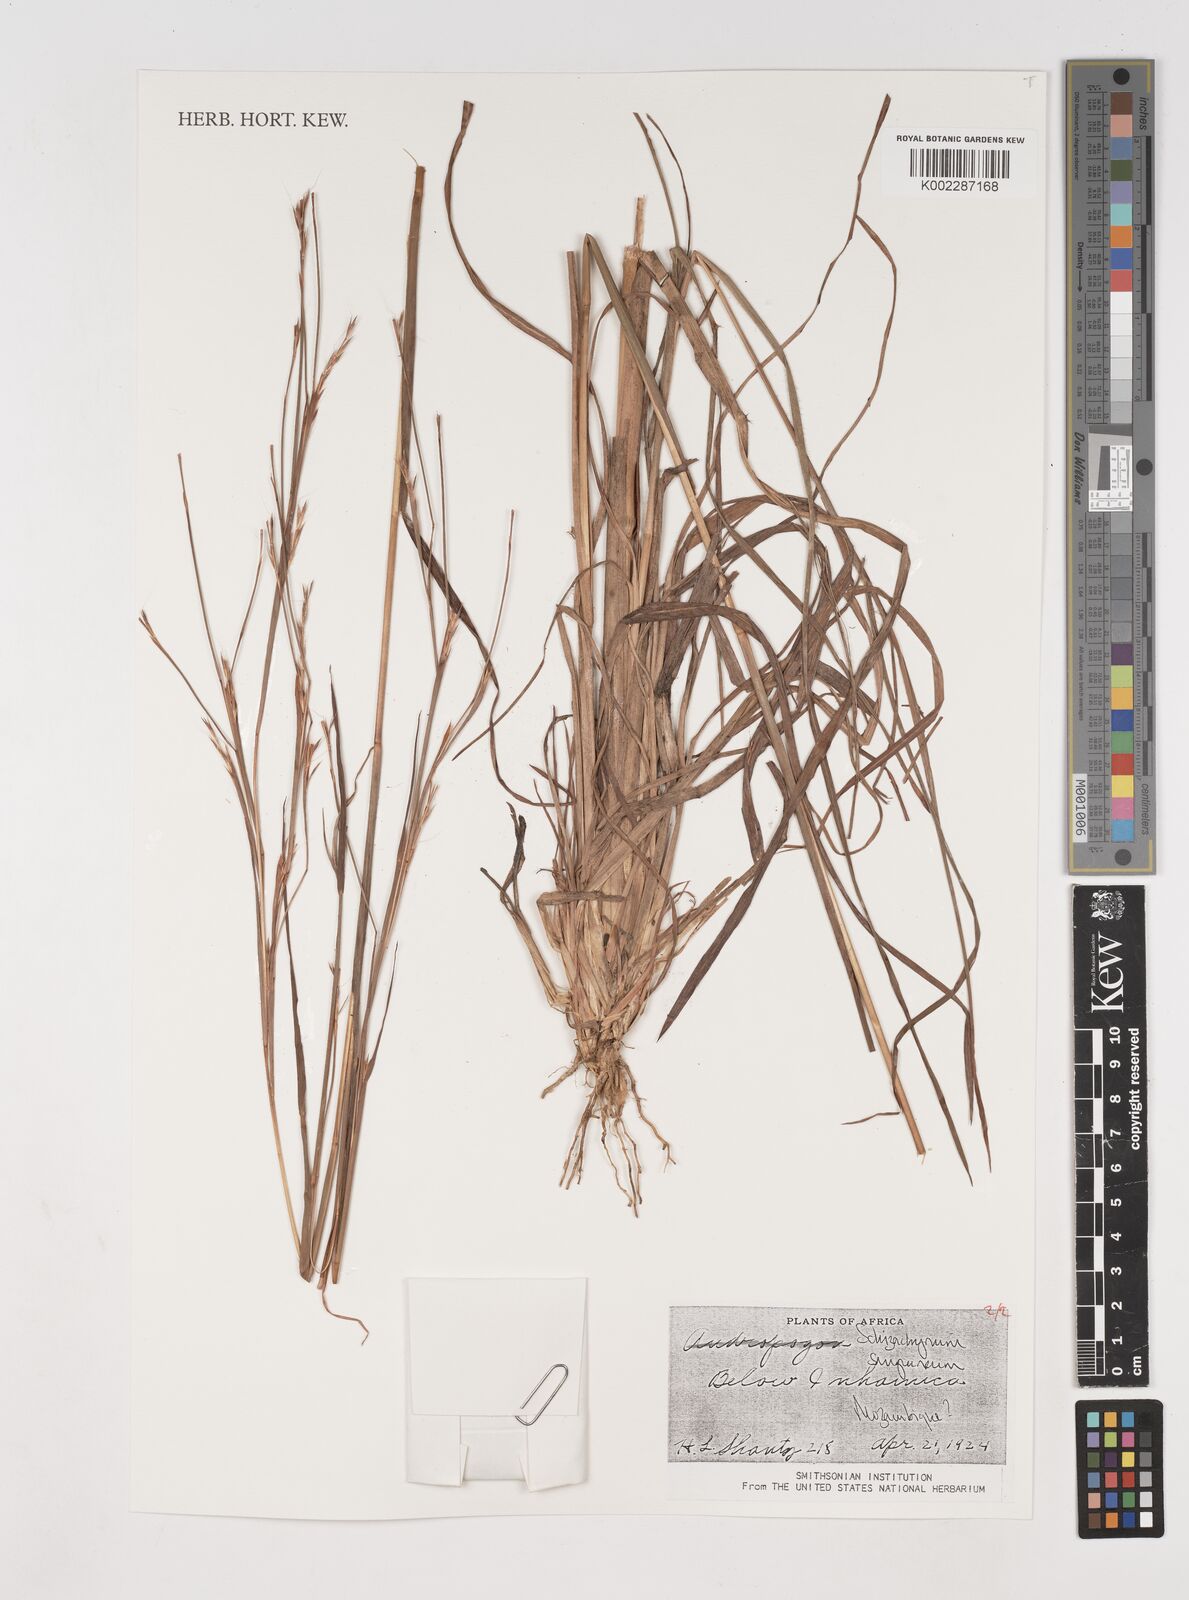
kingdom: Plantae
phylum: Tracheophyta
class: Liliopsida
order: Poales
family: Poaceae
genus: Schizachyrium
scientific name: Schizachyrium sanguineum
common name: Crimson bluestem
